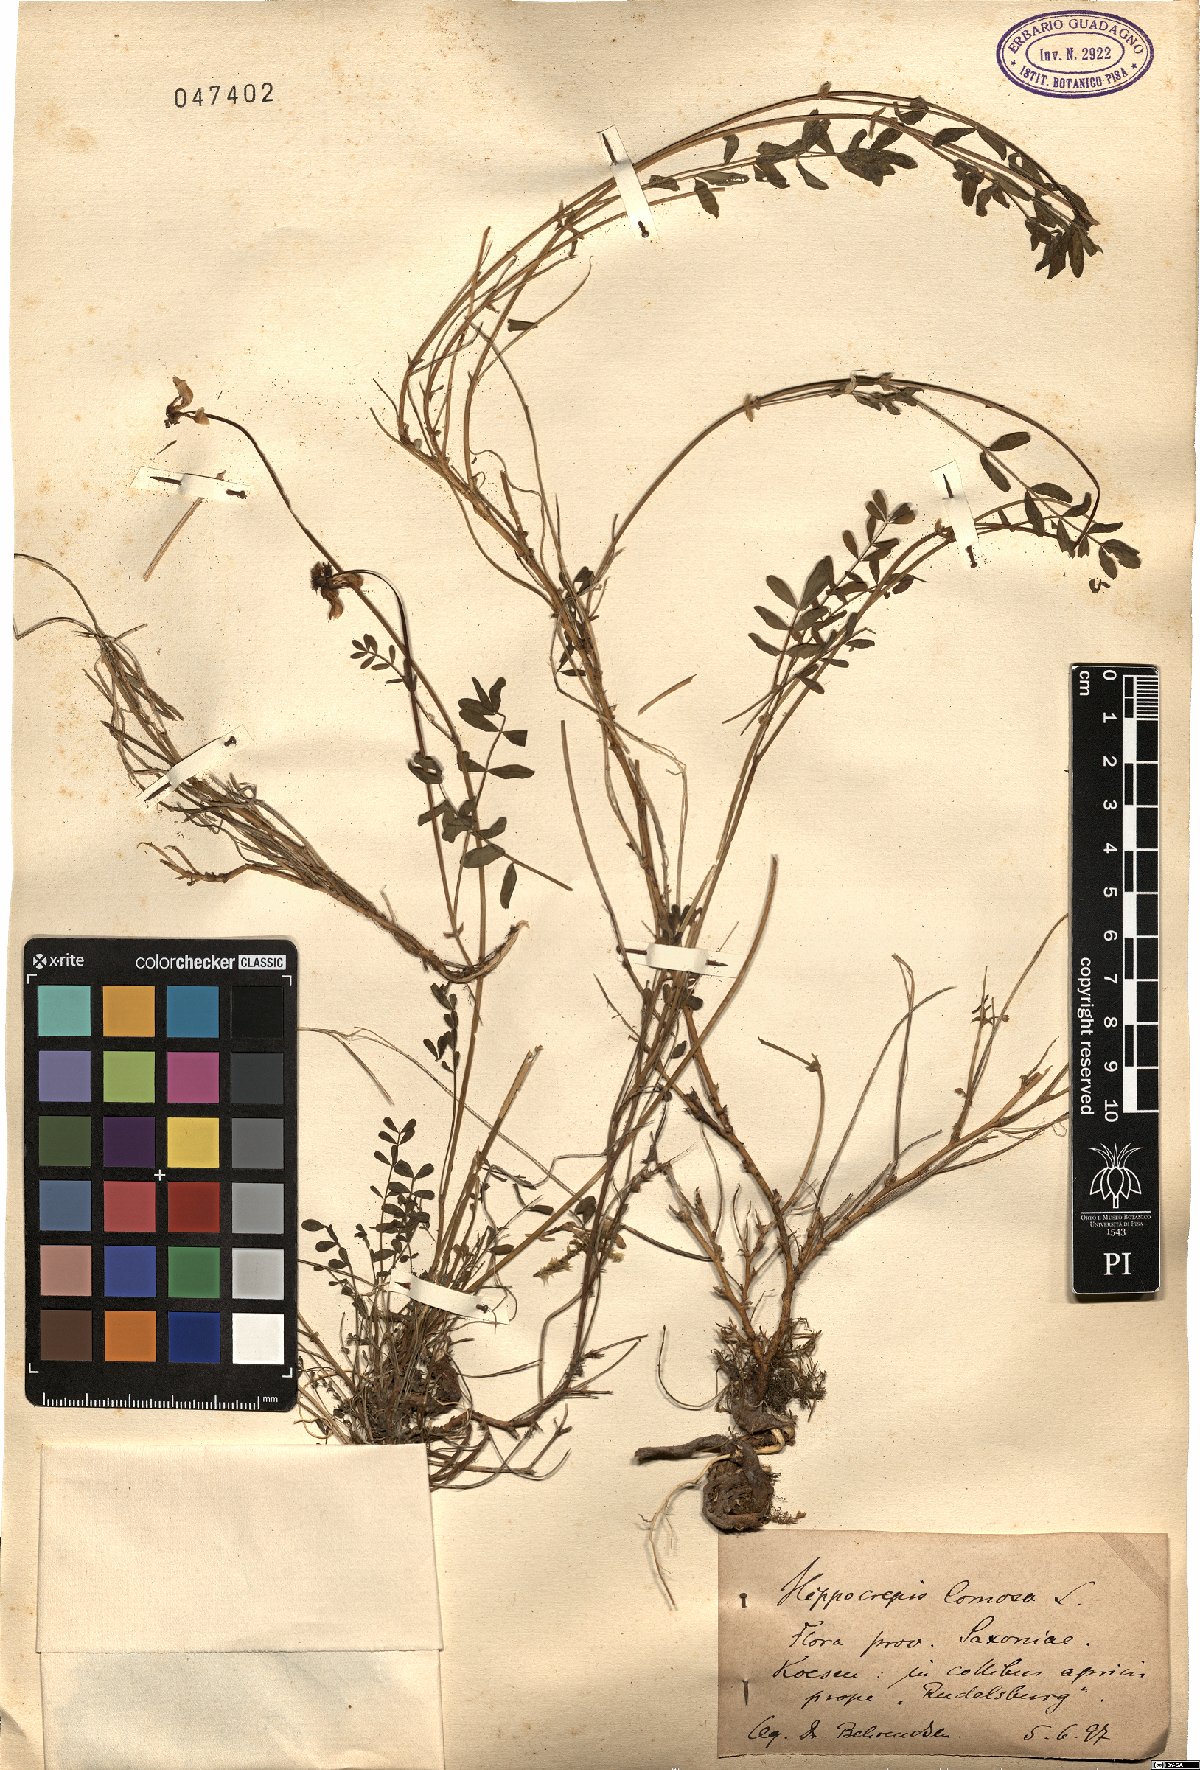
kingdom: Plantae
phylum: Tracheophyta
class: Magnoliopsida
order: Fabales
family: Fabaceae
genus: Hippocrepis
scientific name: Hippocrepis comosa
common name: Horseshoe vetch
